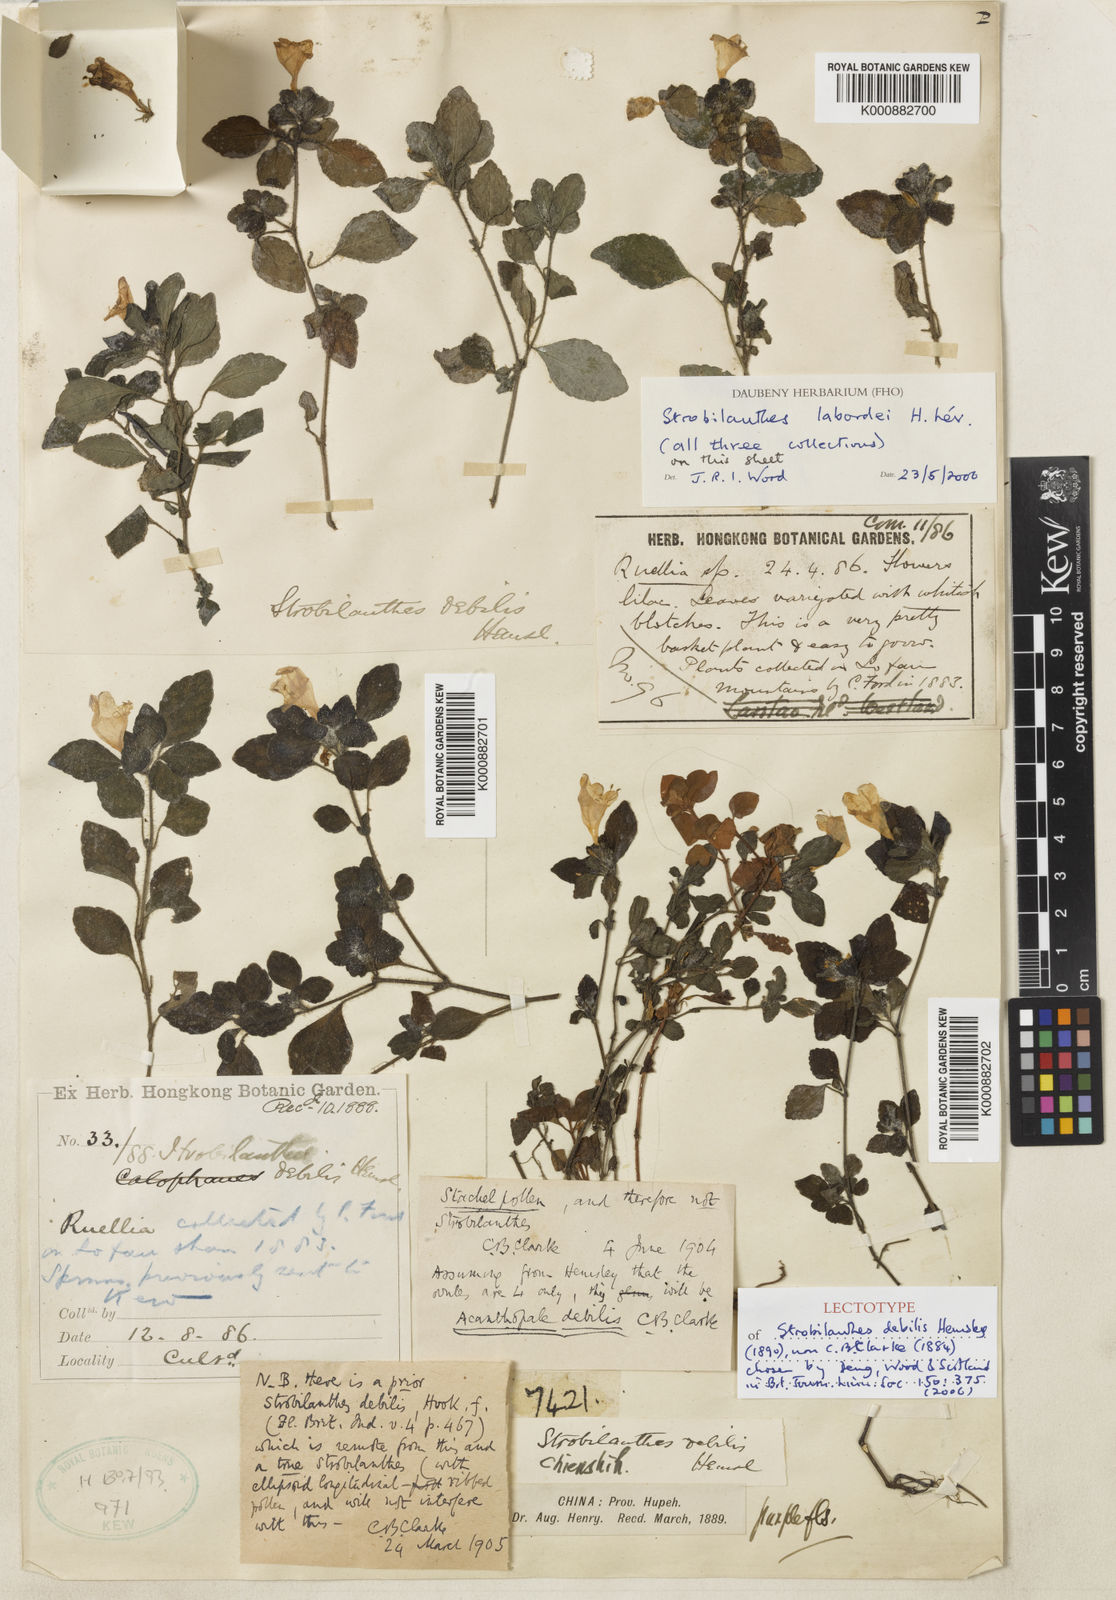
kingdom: Plantae
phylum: Tracheophyta
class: Magnoliopsida
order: Lamiales
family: Acanthaceae
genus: Strobilanthes
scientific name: Strobilanthes
